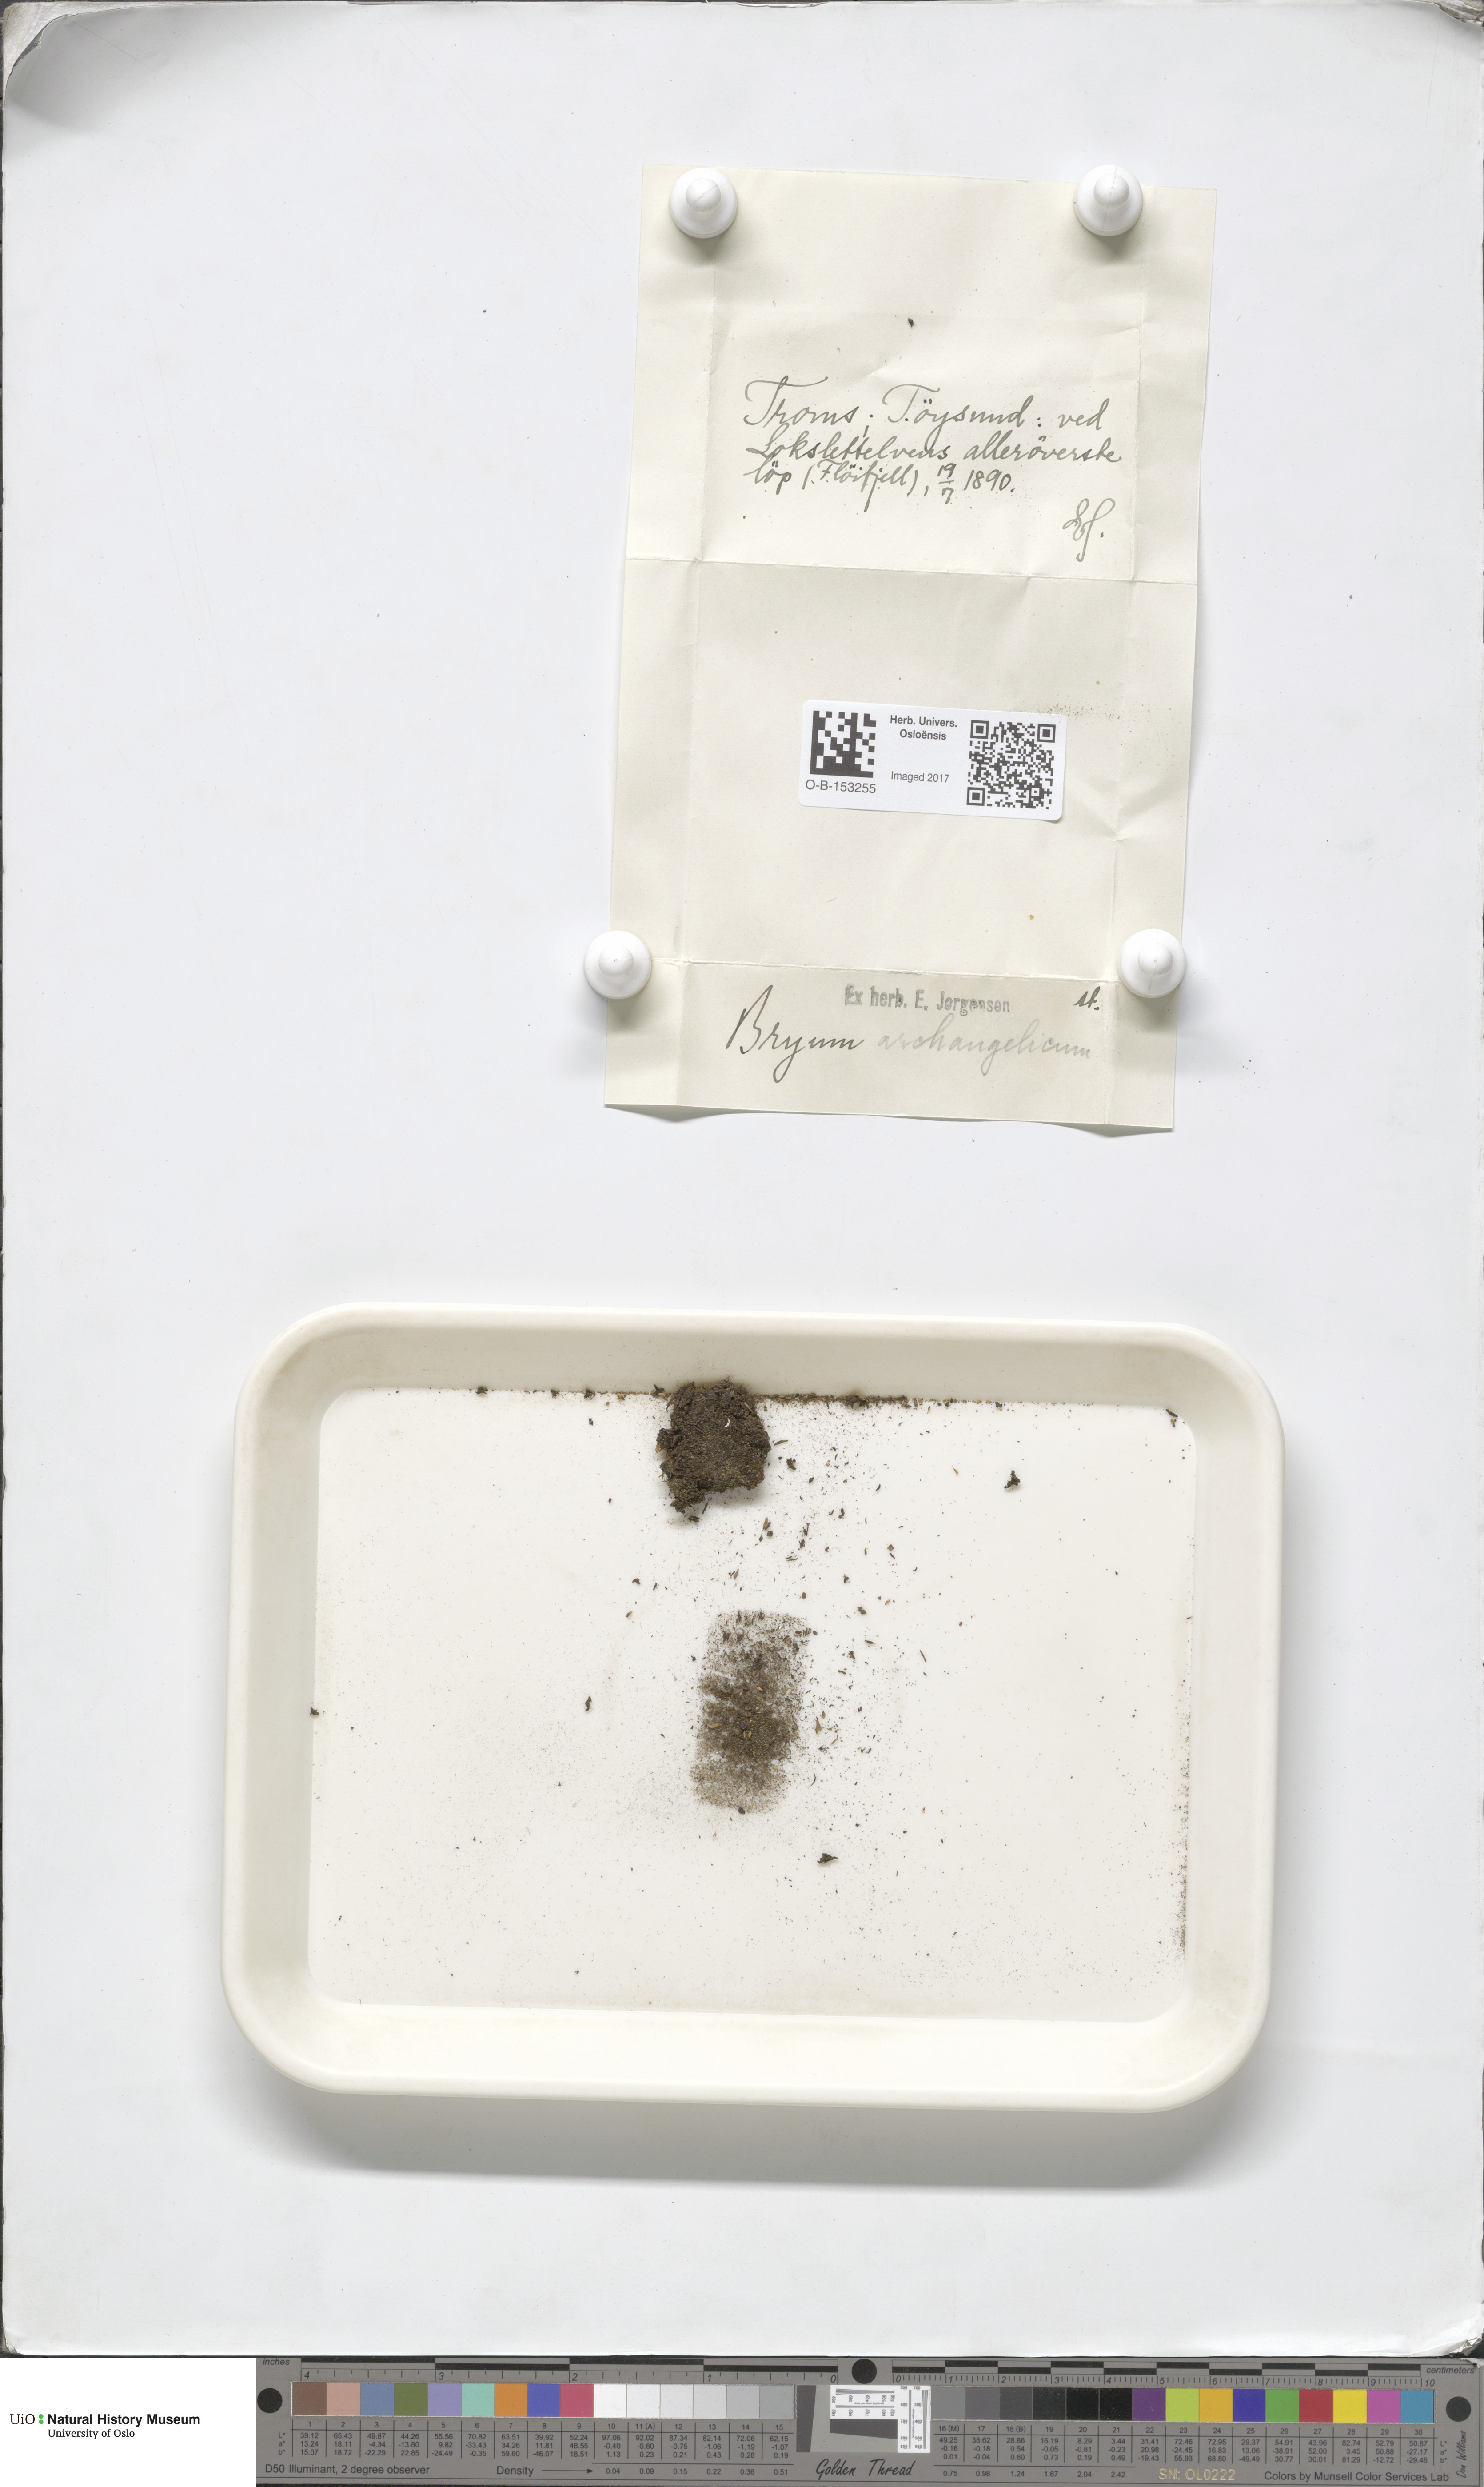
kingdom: Plantae
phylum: Bryophyta
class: Bryopsida
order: Bryales
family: Bryaceae
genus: Ptychostomum
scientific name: Ptychostomum inclinatum
